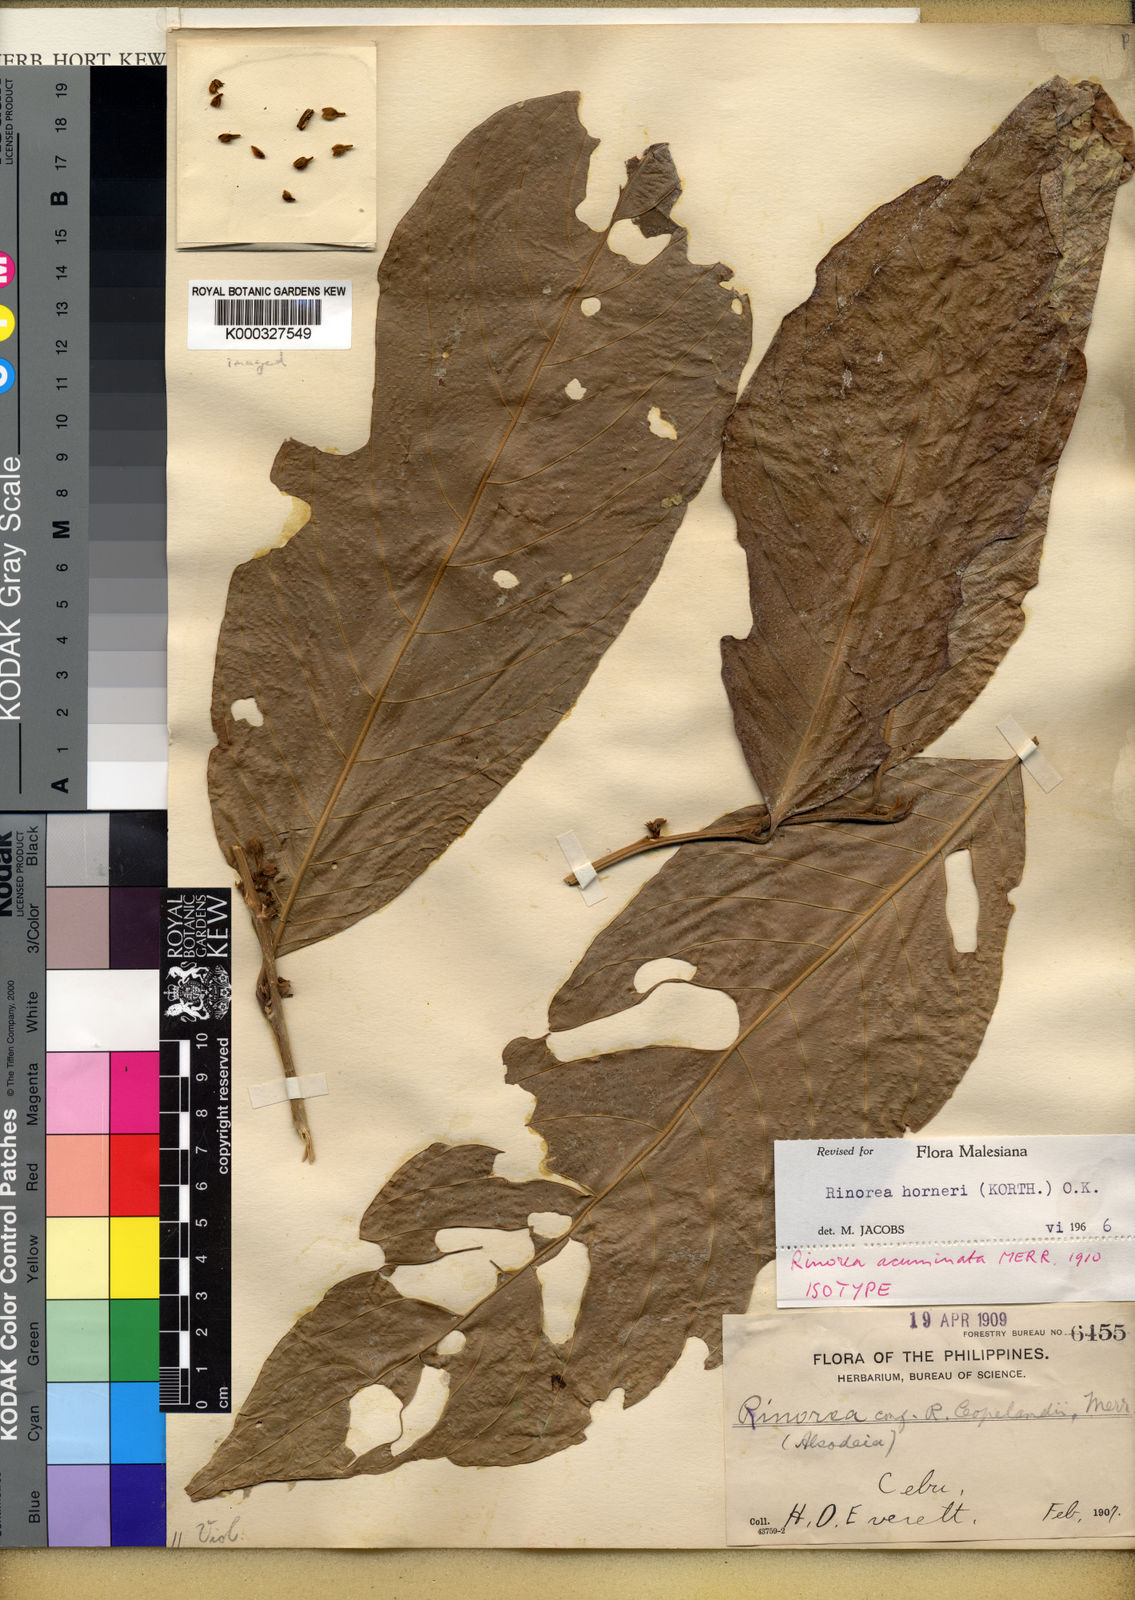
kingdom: Plantae
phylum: Tracheophyta
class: Magnoliopsida
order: Malpighiales
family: Violaceae
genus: Rinorea
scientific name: Rinorea horneri
